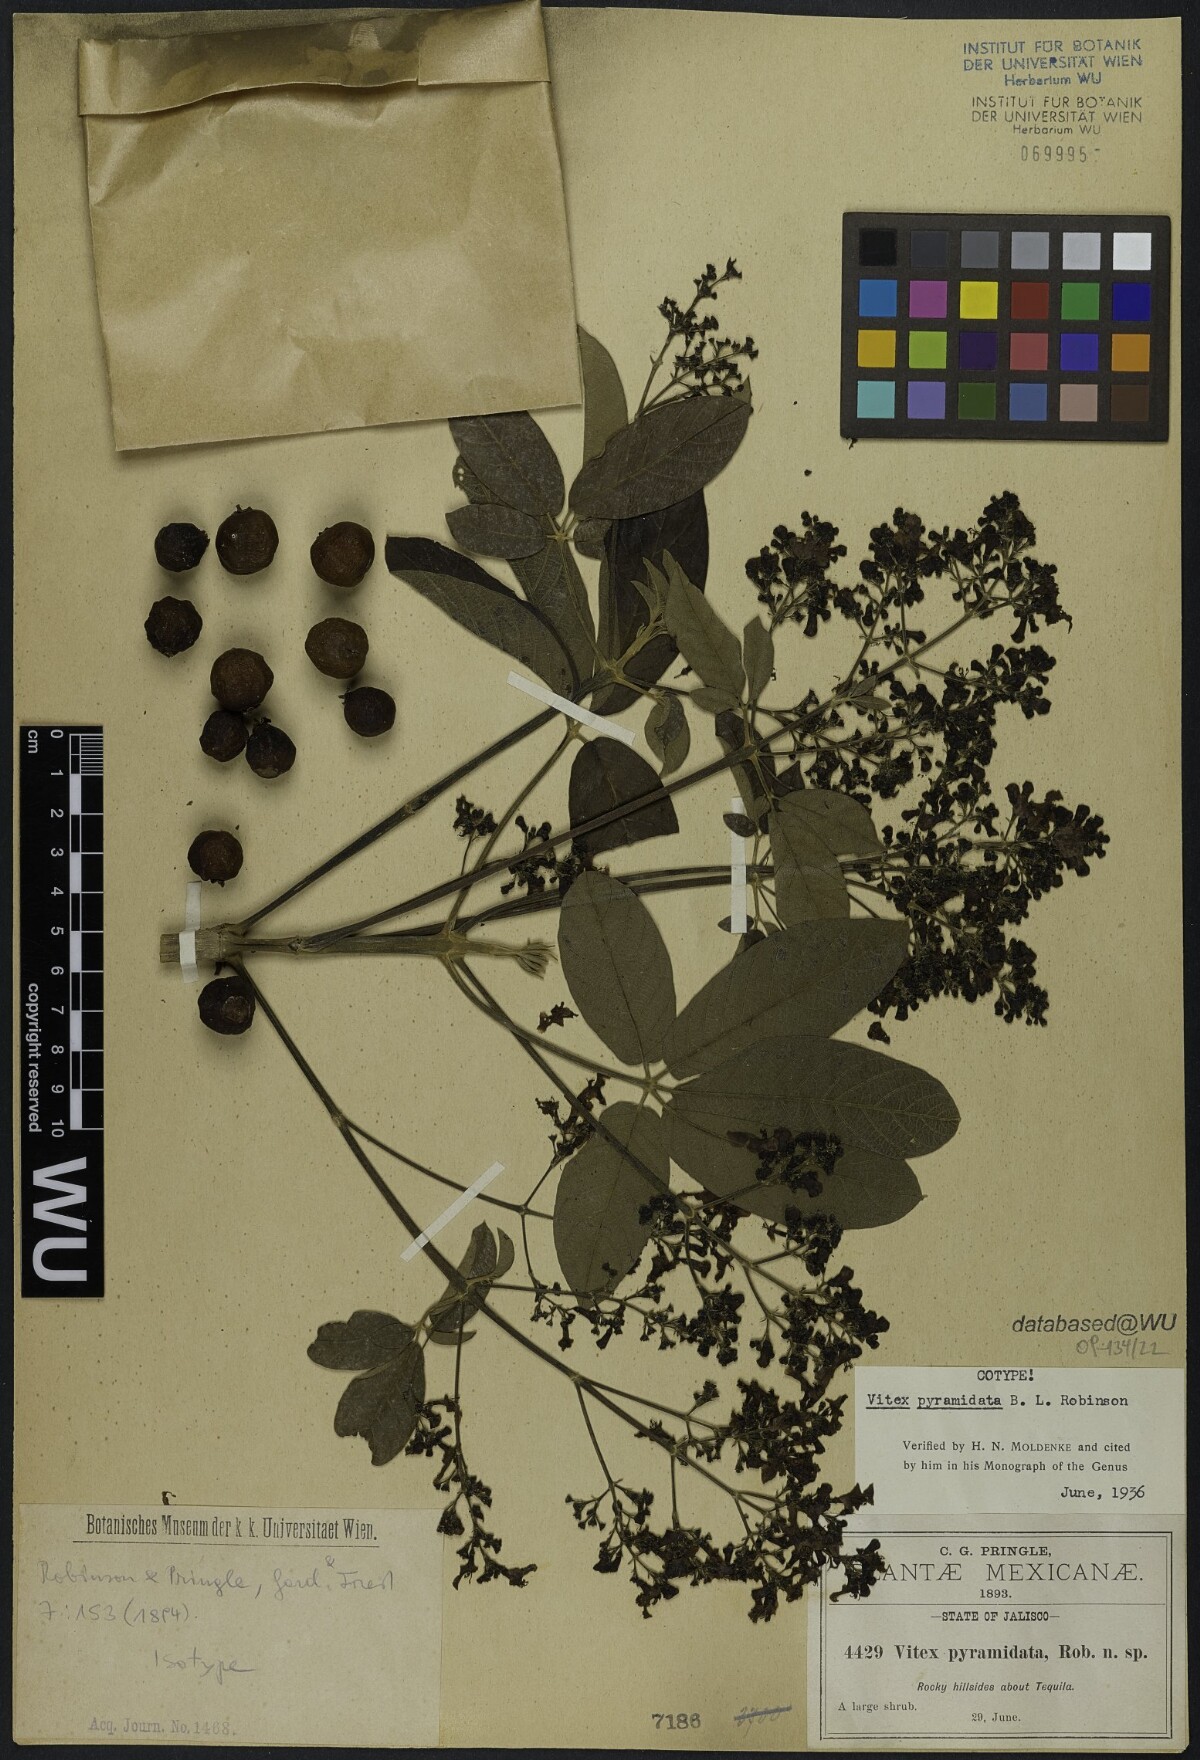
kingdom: Plantae
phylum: Tracheophyta
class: Magnoliopsida
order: Lamiales
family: Verbenaceae
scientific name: Verbenaceae
